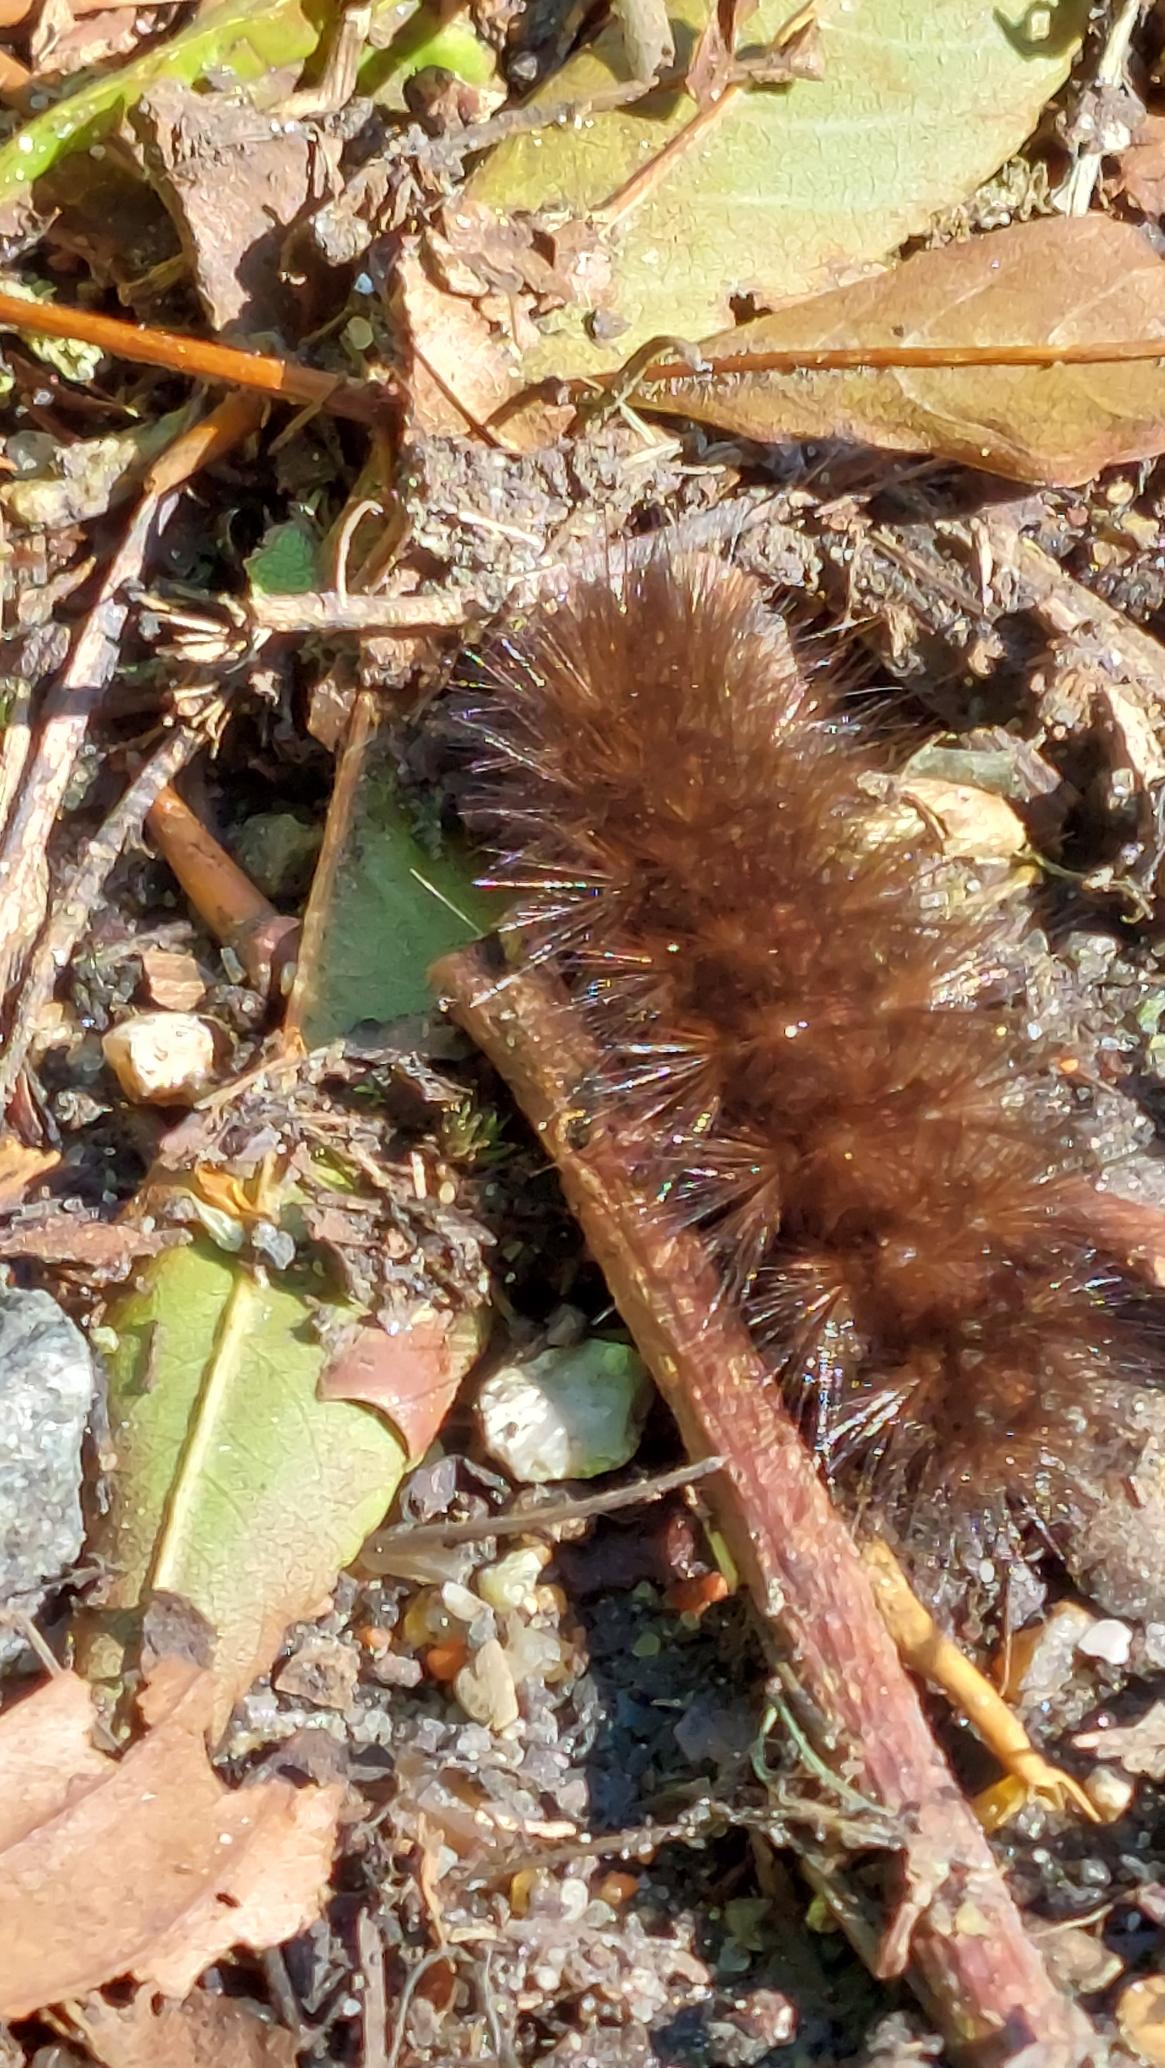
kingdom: Animalia
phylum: Arthropoda
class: Insecta
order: Lepidoptera
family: Erebidae
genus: Phragmatobia
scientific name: Phragmatobia fuliginosa
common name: Kanelbjørn
